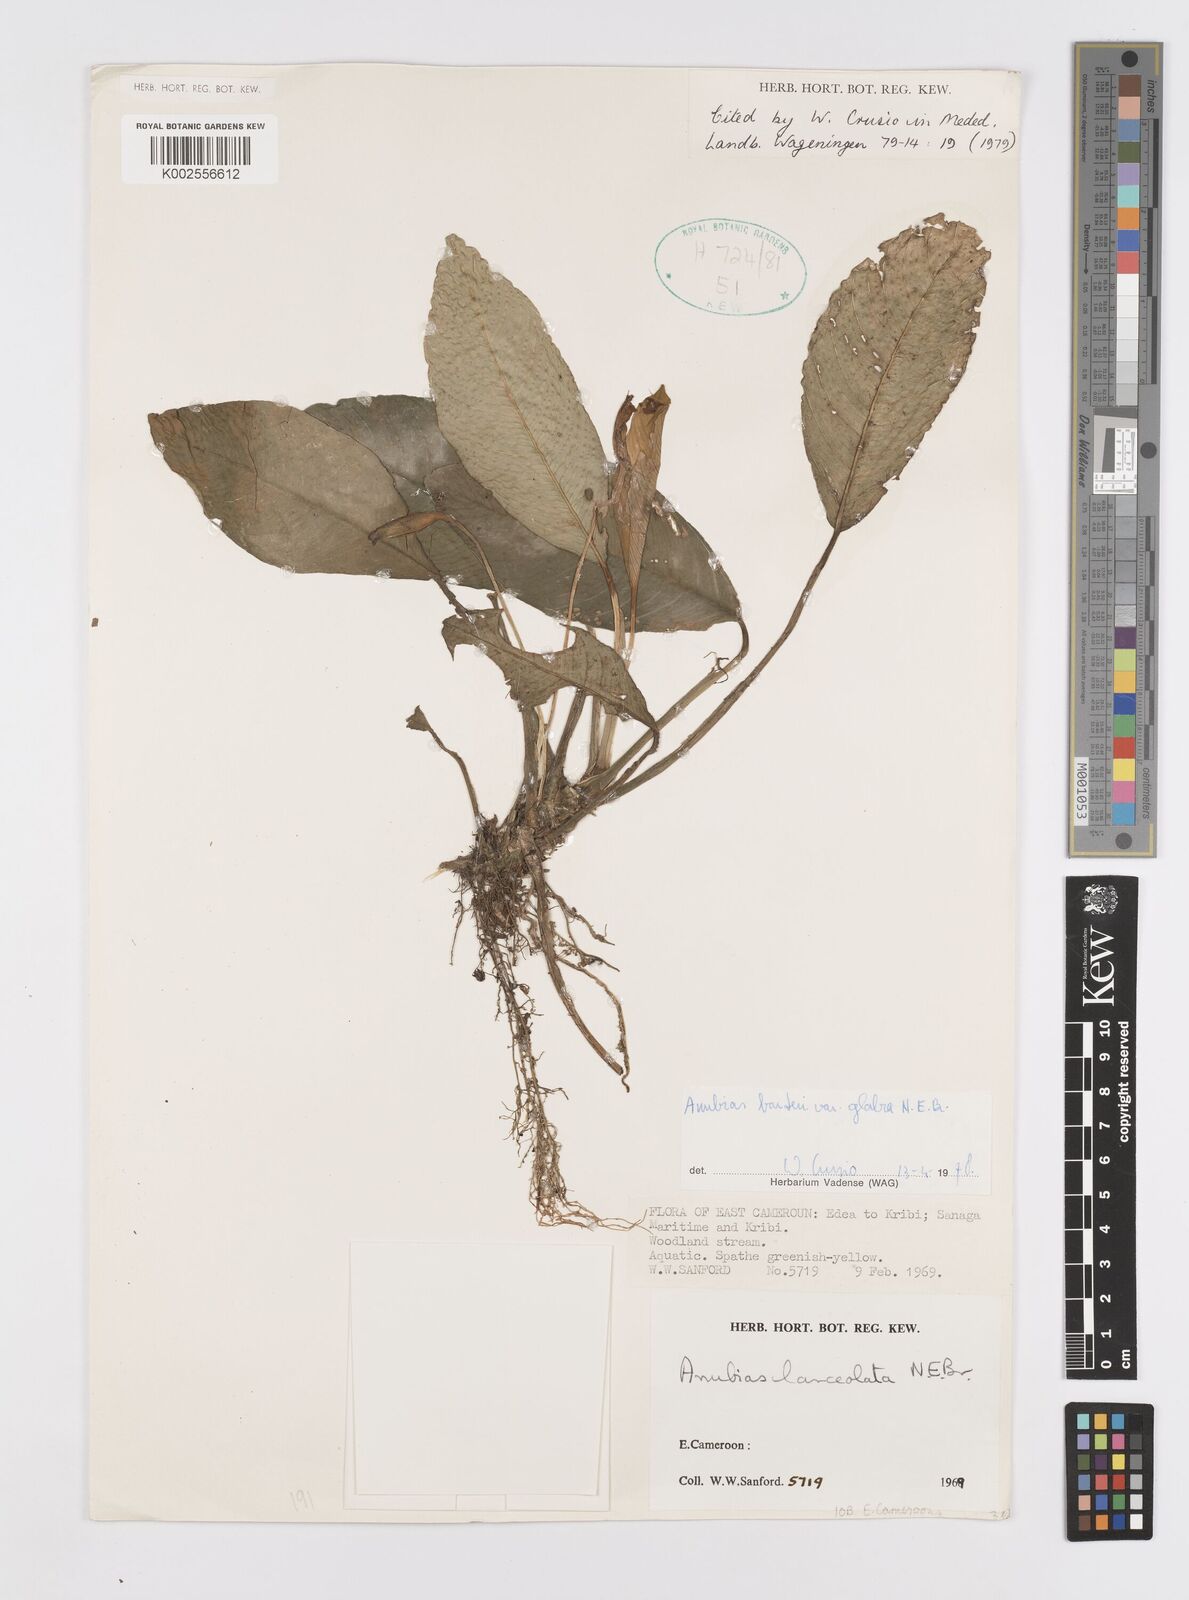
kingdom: Plantae
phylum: Tracheophyta
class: Liliopsida
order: Alismatales
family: Araceae
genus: Anubias
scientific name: Anubias barteri
